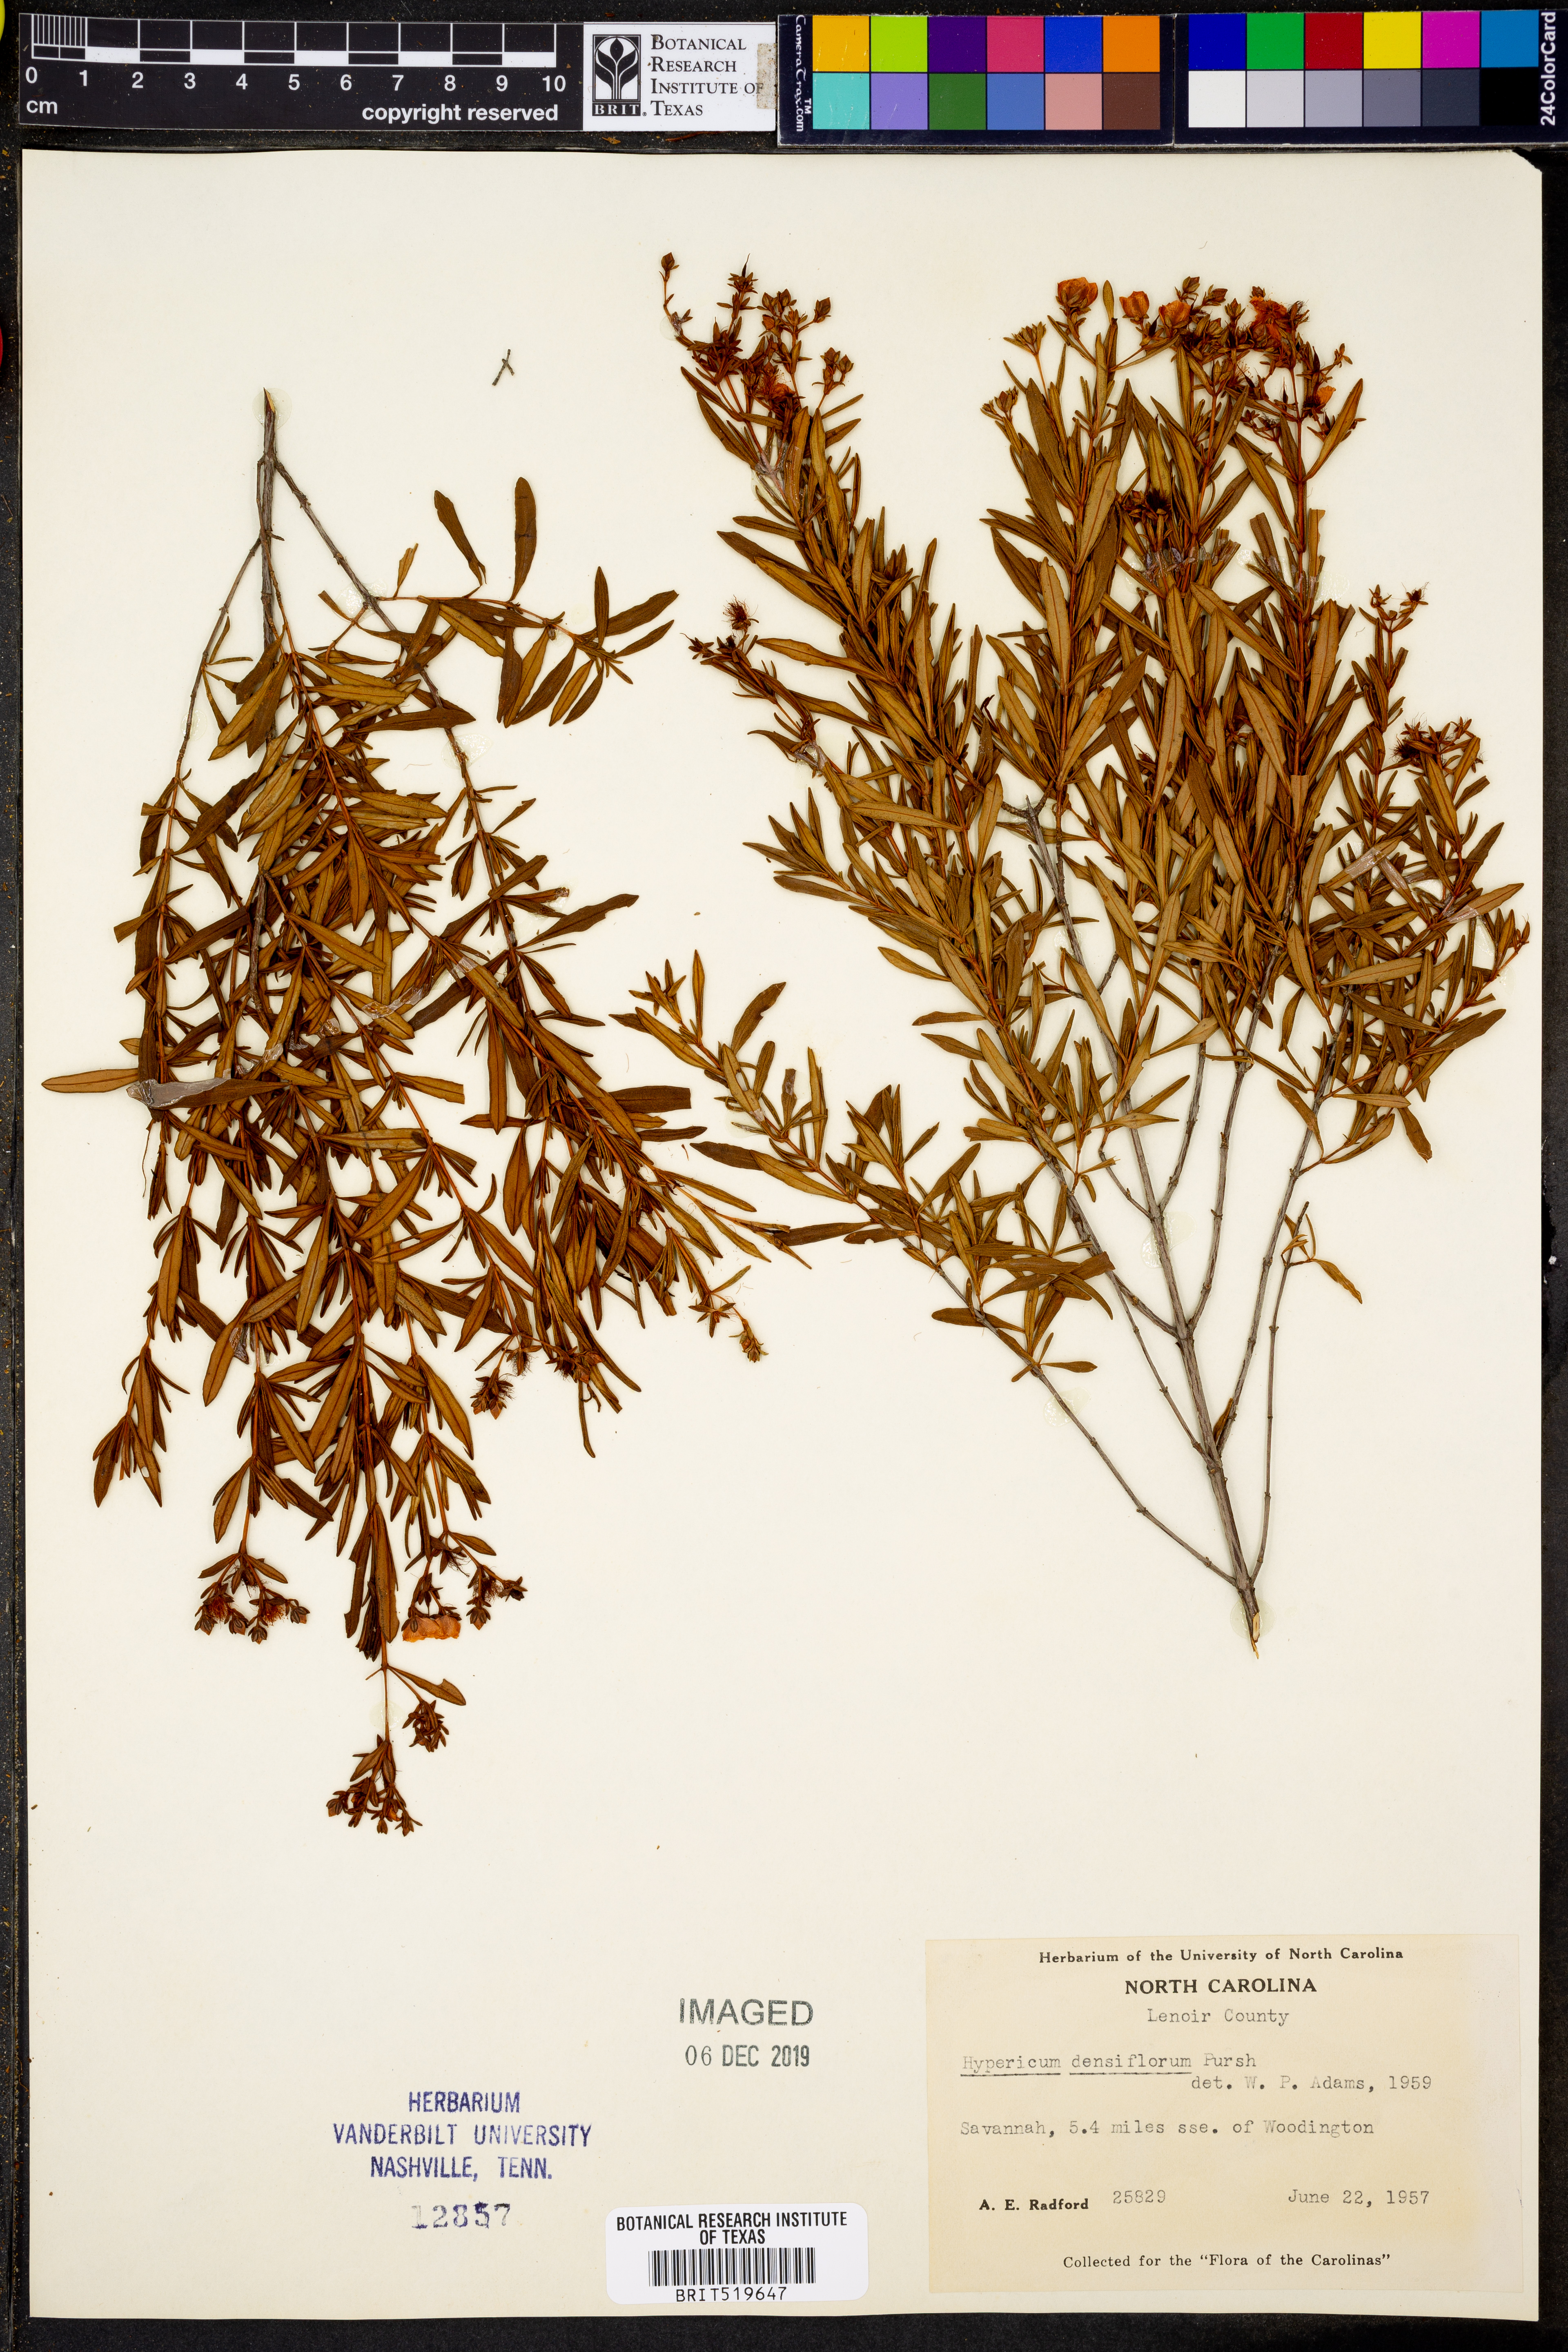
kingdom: Plantae
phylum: Tracheophyta
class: Magnoliopsida
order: Malpighiales
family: Hypericaceae
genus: Hypericum
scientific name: Hypericum densiflorum
